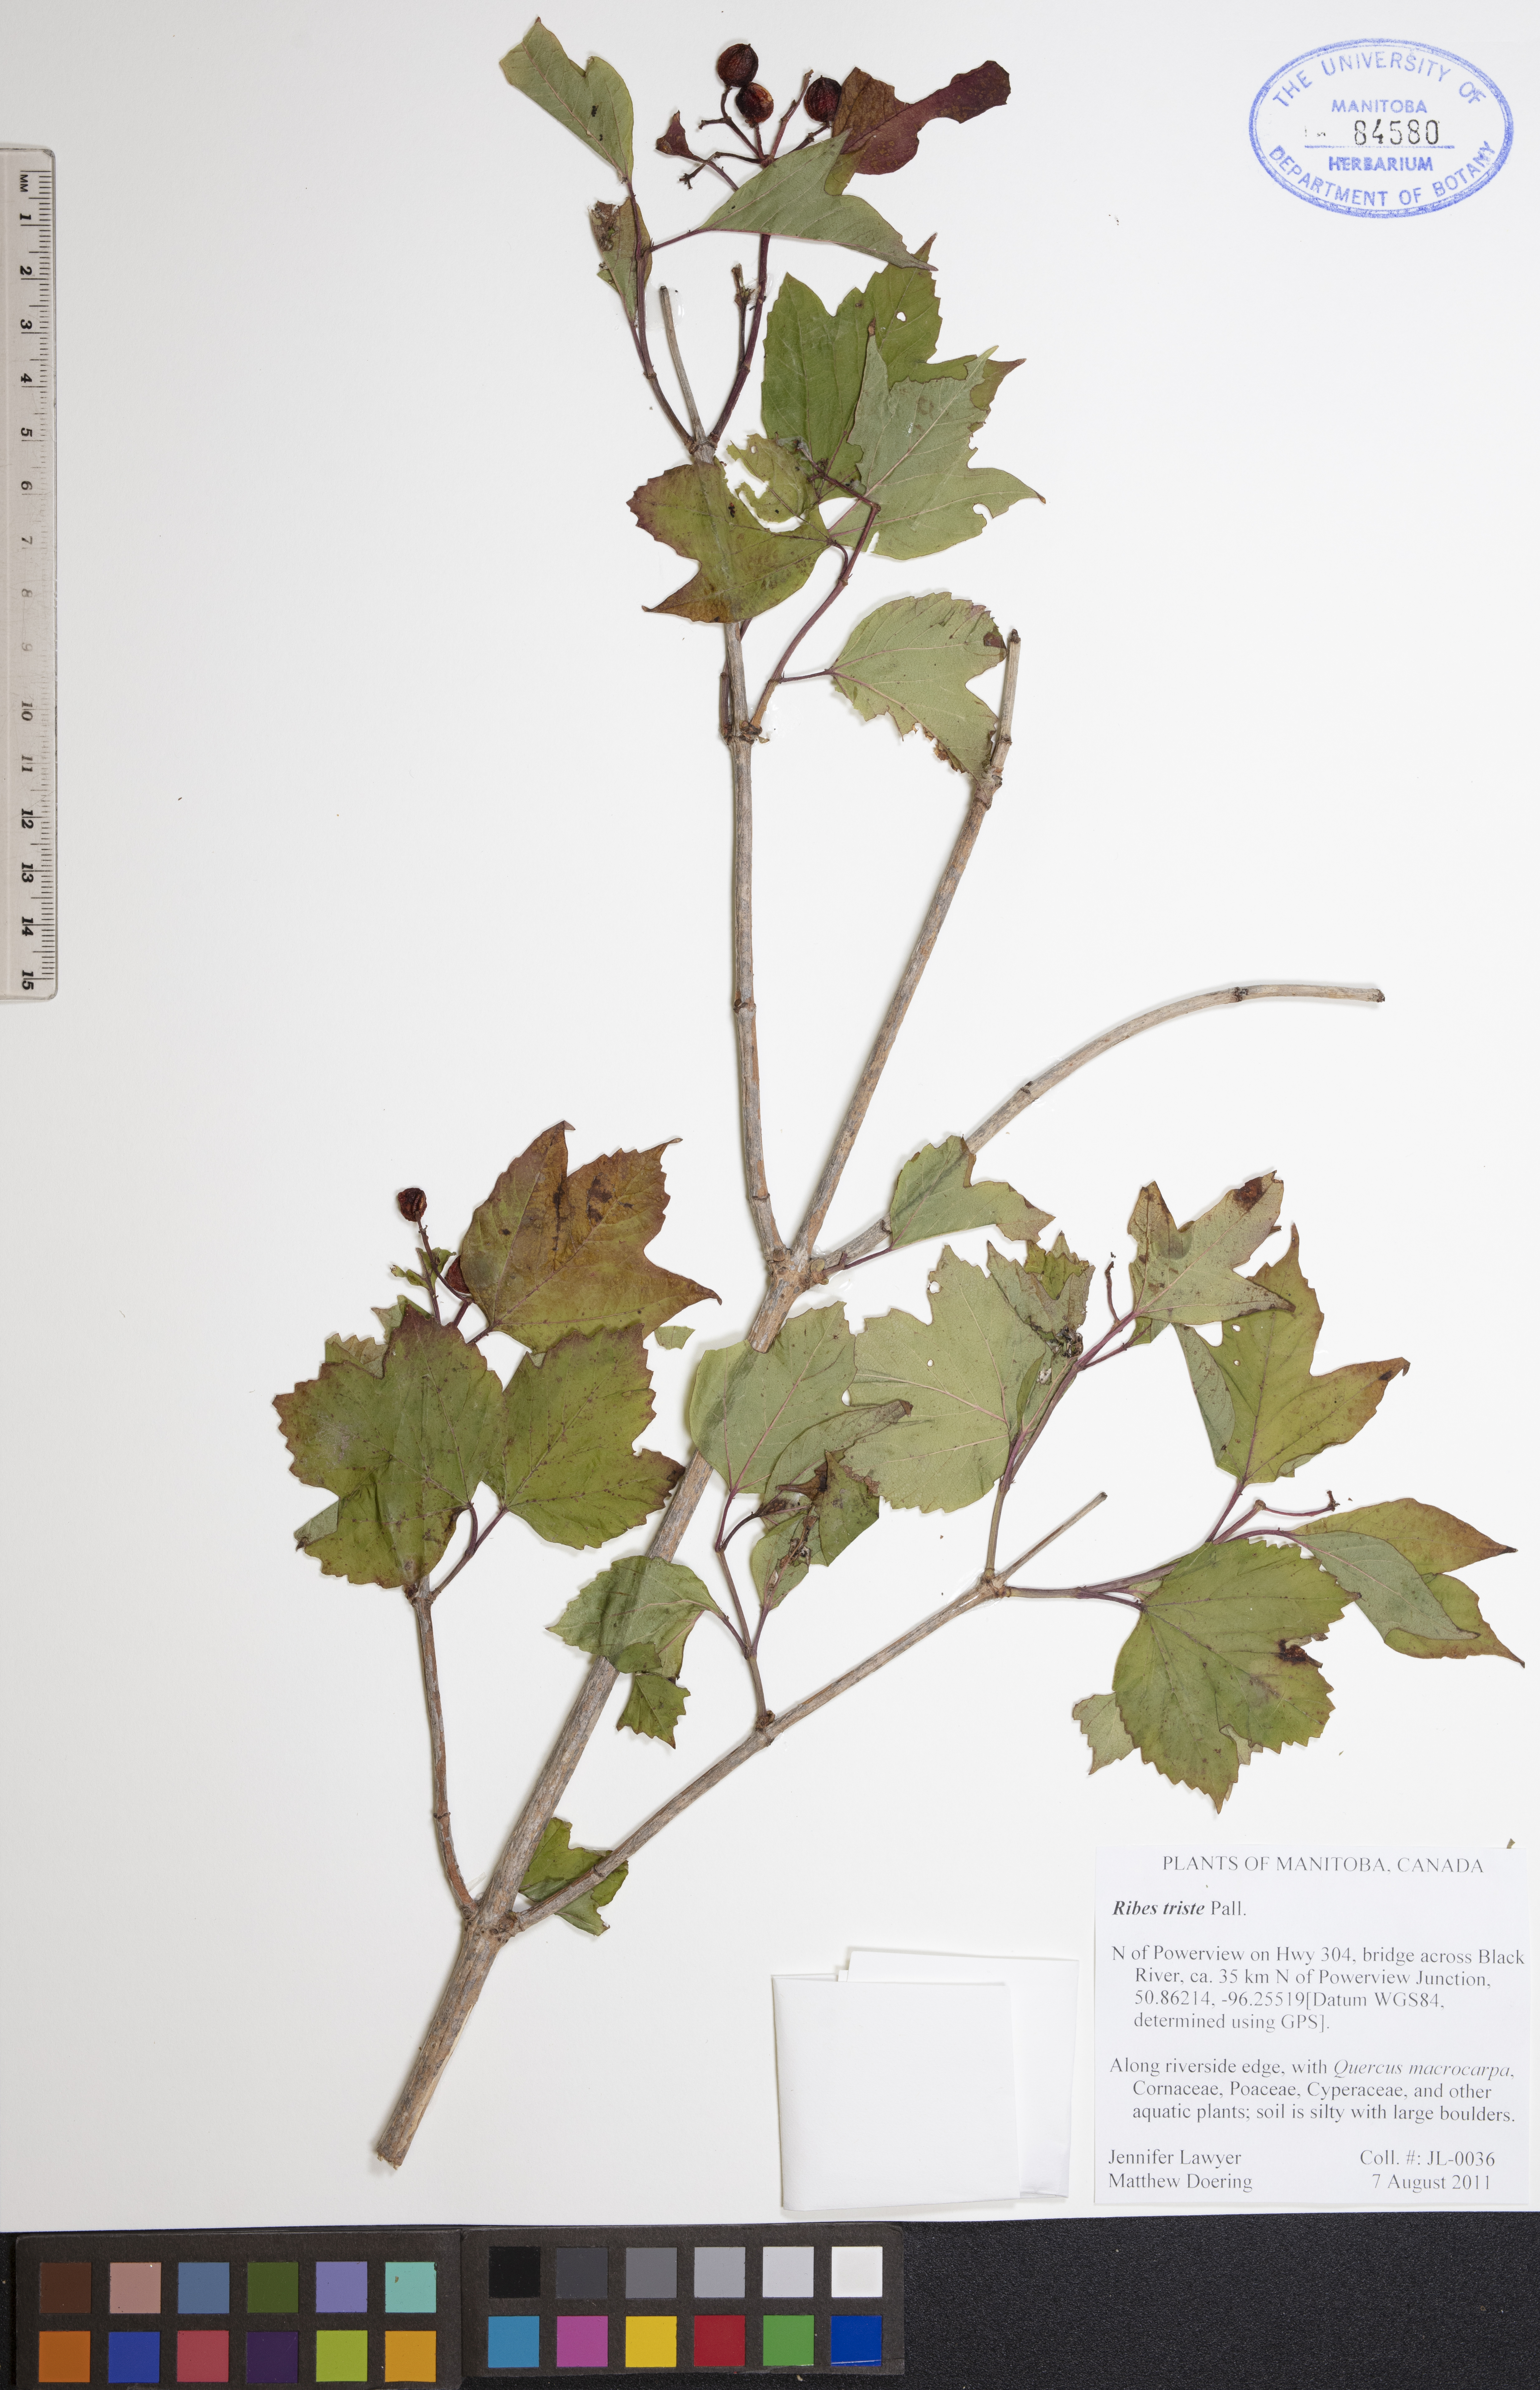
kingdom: Plantae
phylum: Tracheophyta
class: Magnoliopsida
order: Saxifragales
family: Grossulariaceae
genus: Ribes
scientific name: Ribes triste
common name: Swamp red currant
